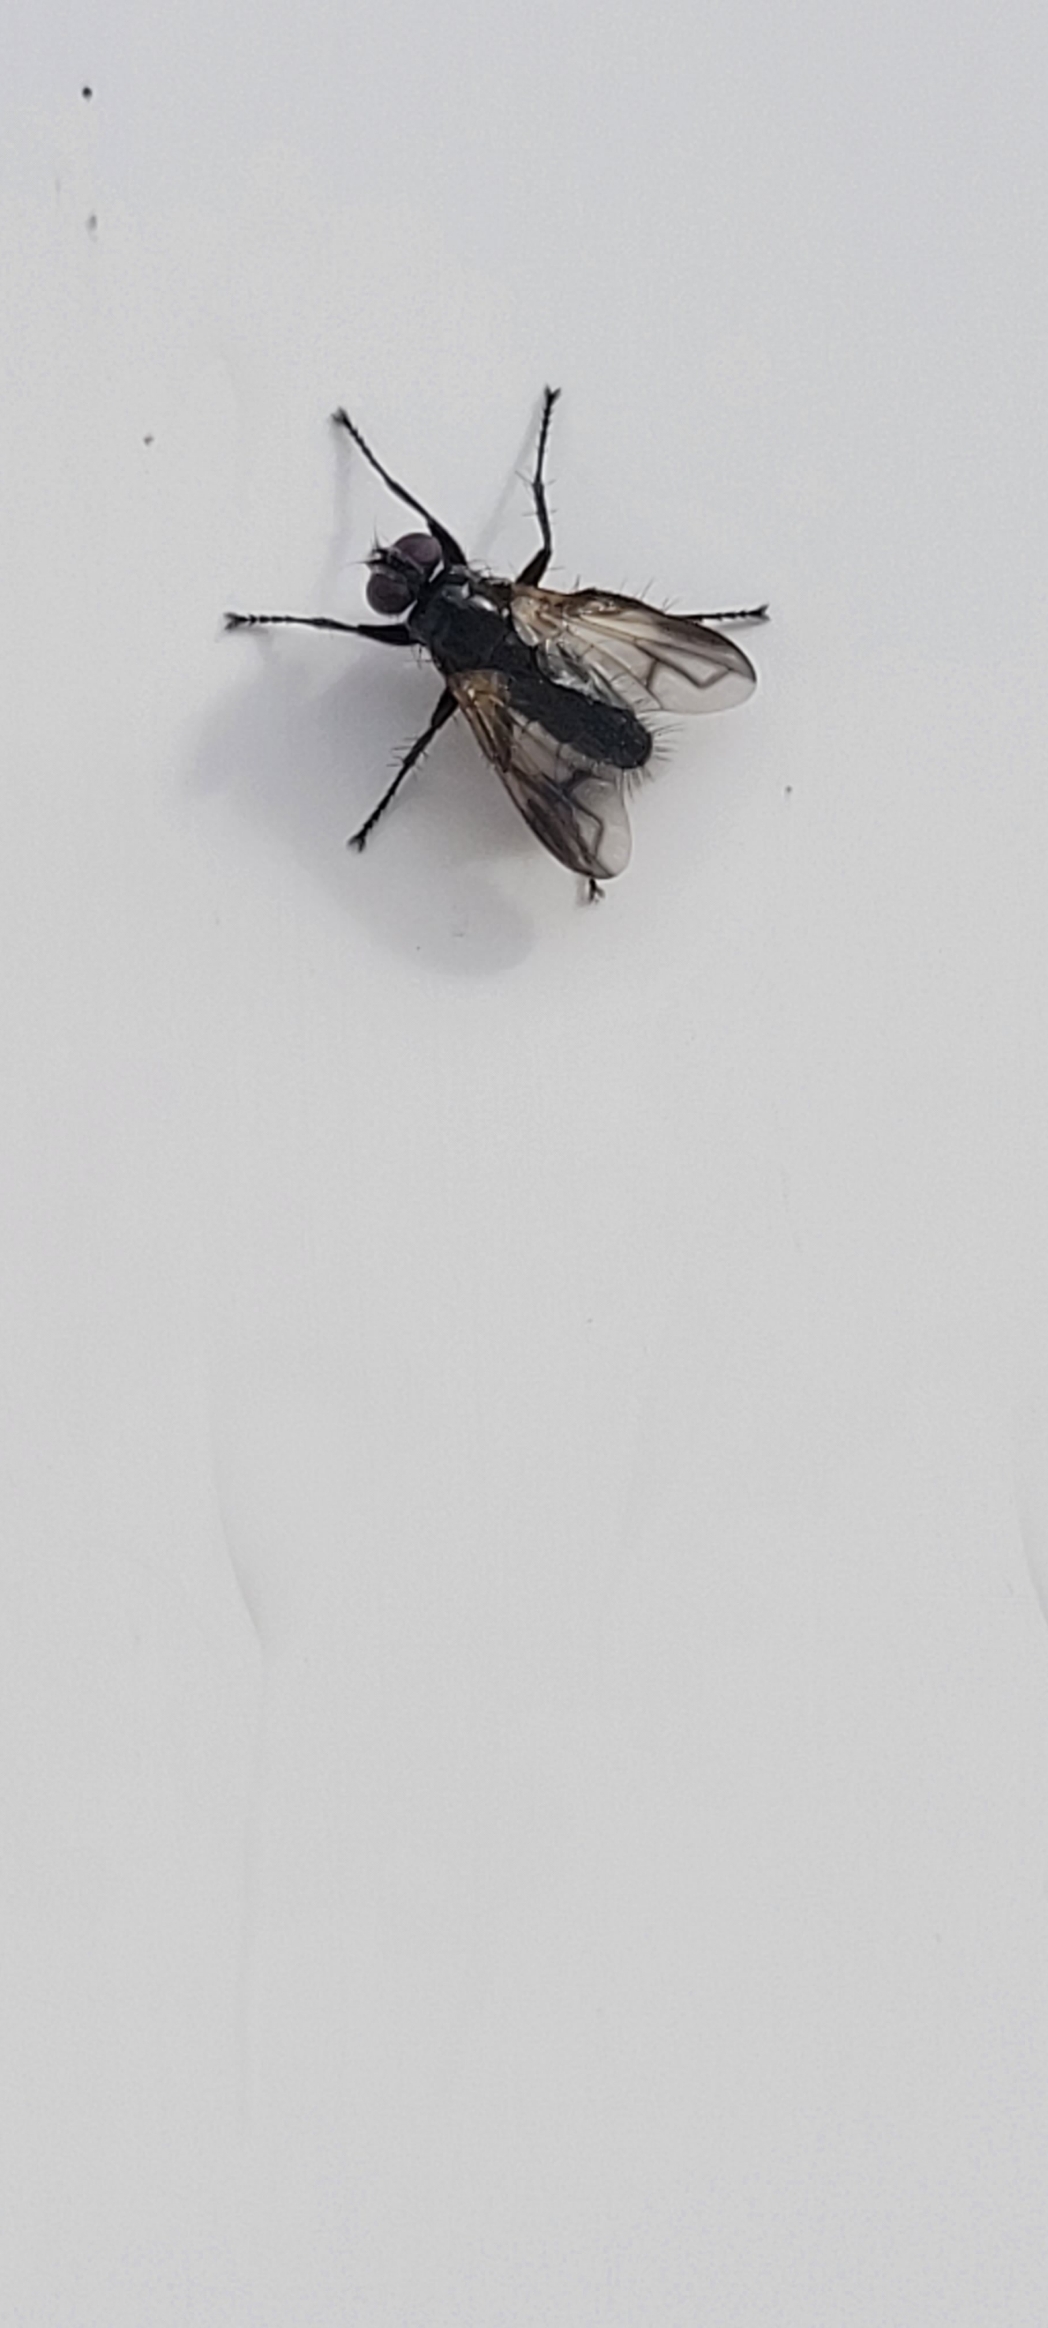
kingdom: Animalia
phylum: Arthropoda
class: Insecta
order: Diptera
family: Calliphoridae
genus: Paykullia
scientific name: Paykullia maculata
